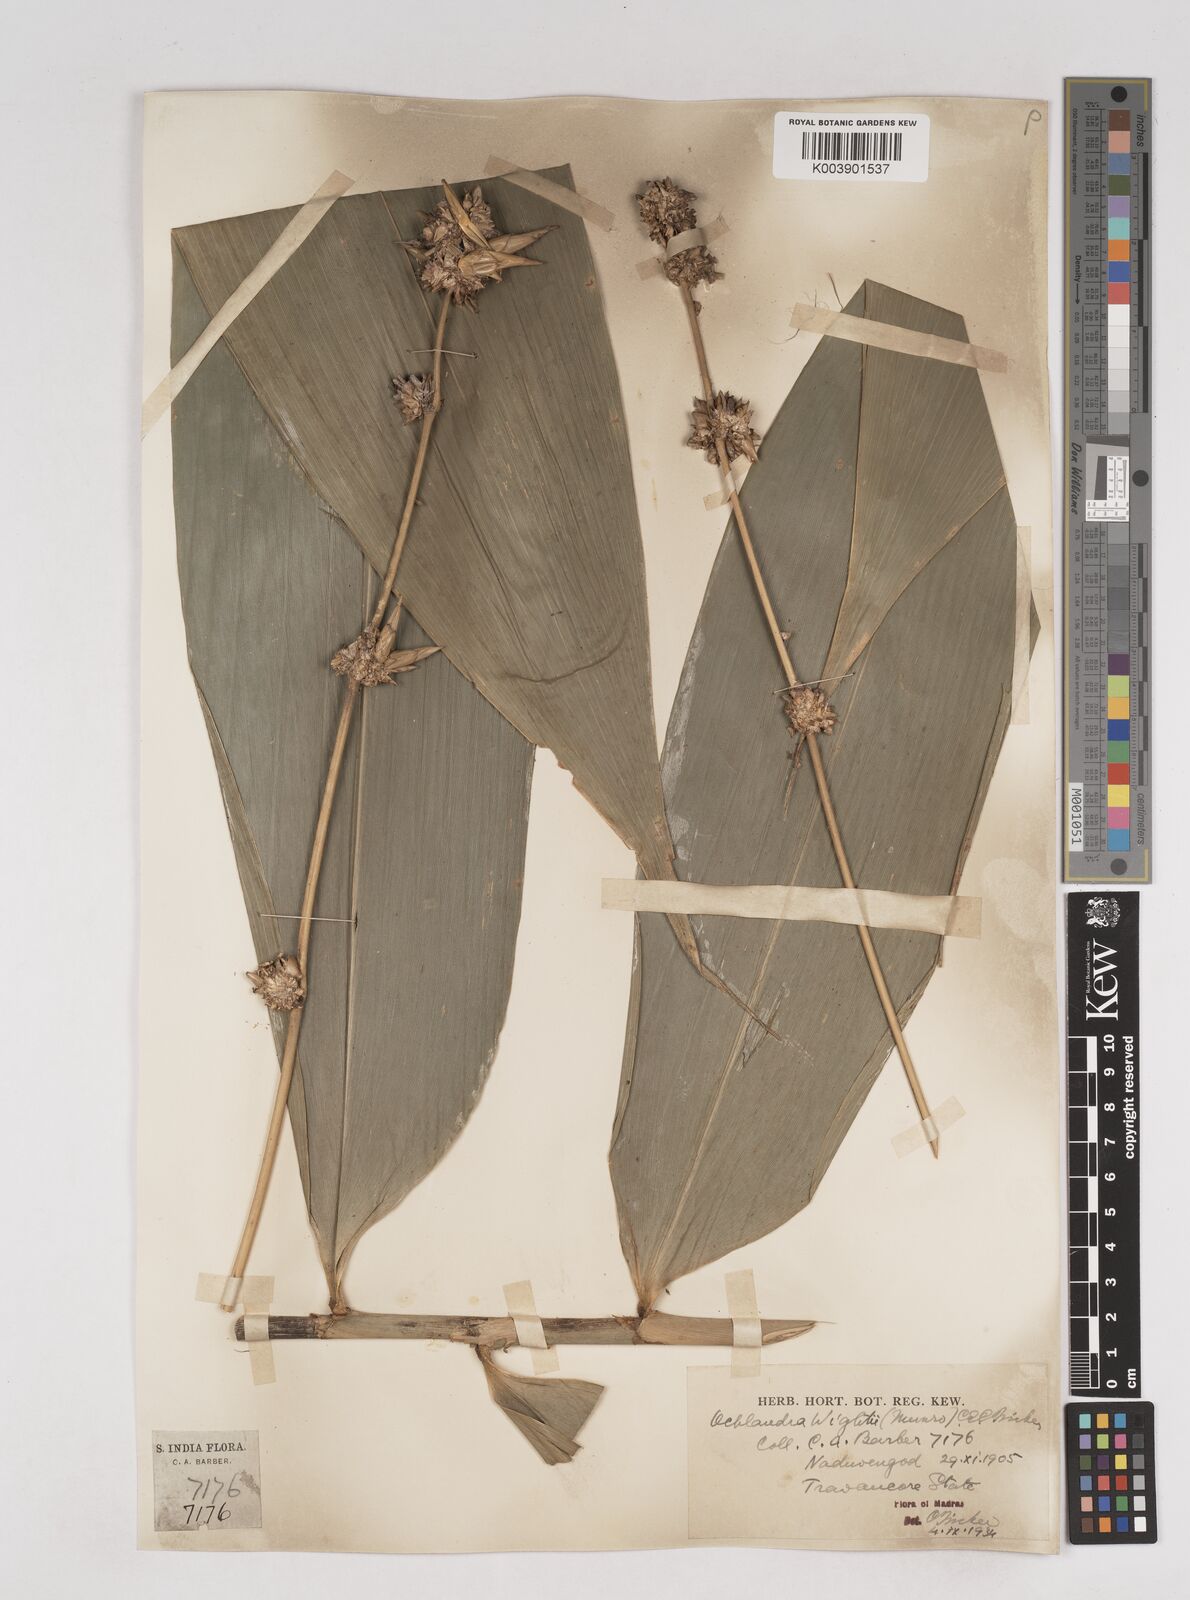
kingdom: Plantae
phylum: Tracheophyta
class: Liliopsida
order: Poales
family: Poaceae
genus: Ochlandra
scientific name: Ochlandra wightii
